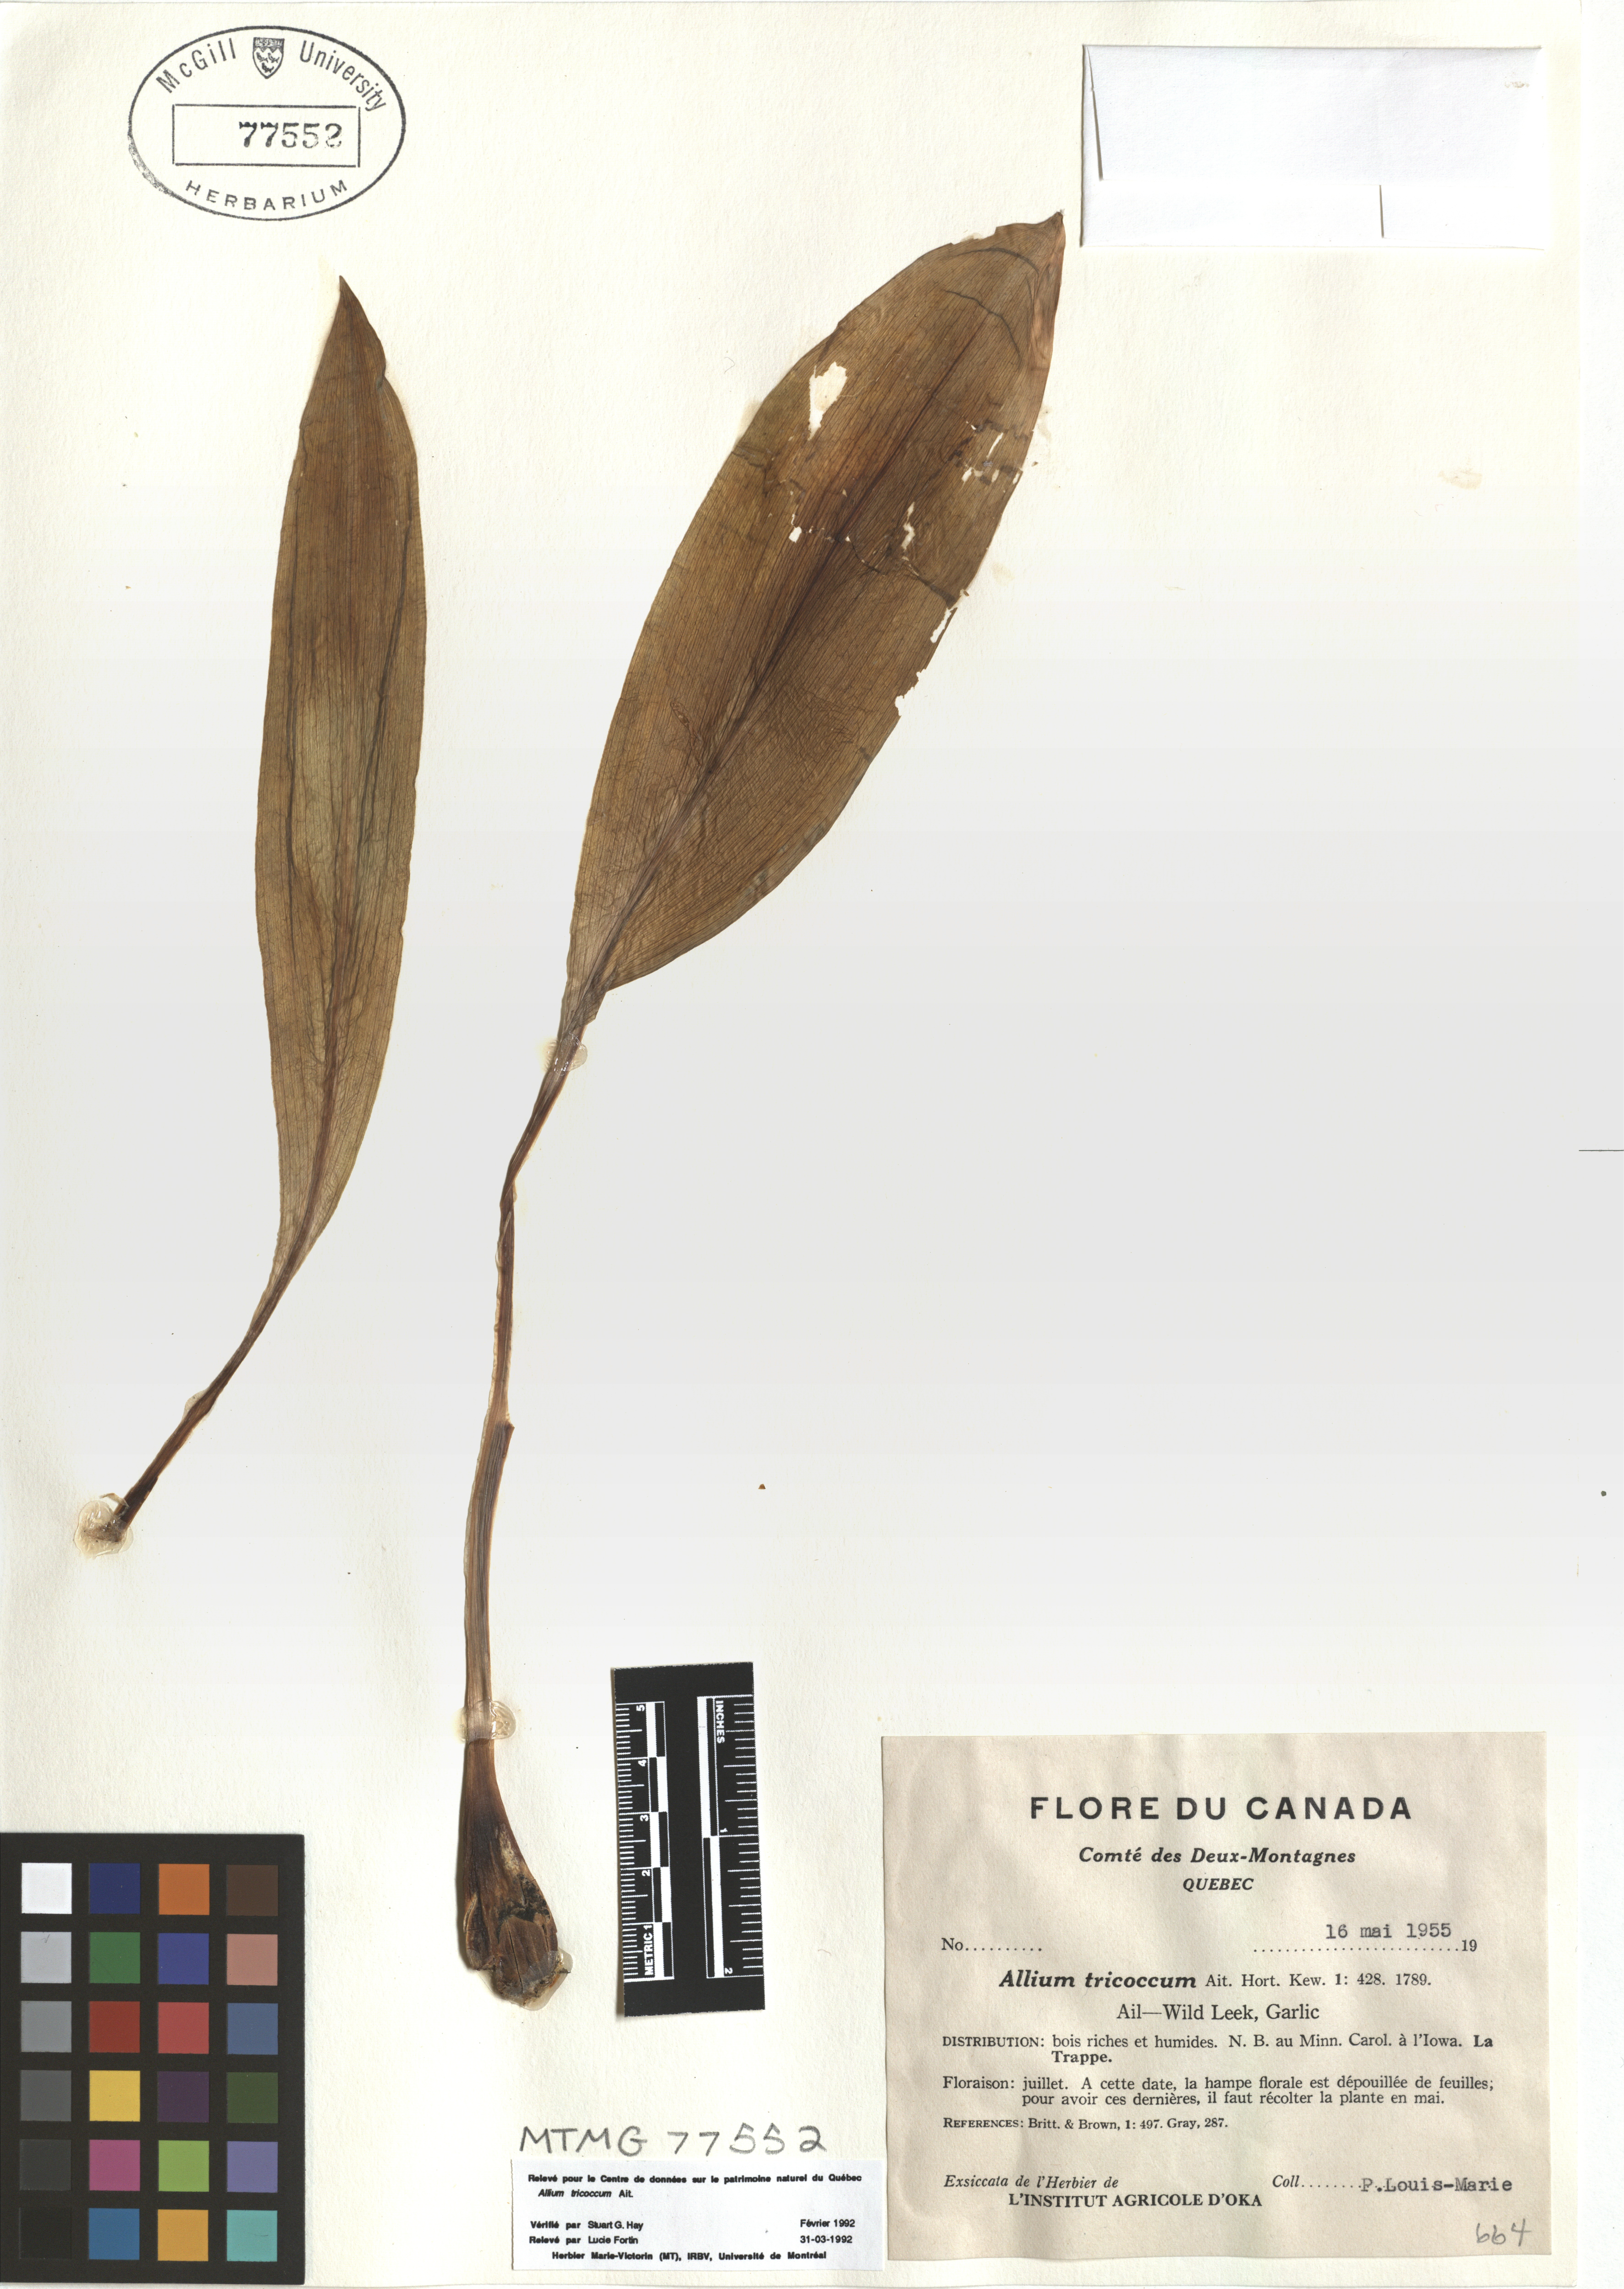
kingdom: Plantae
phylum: Tracheophyta
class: Liliopsida
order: Asparagales
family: Amaryllidaceae
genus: Allium
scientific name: Allium tricoccum
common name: Ramp
